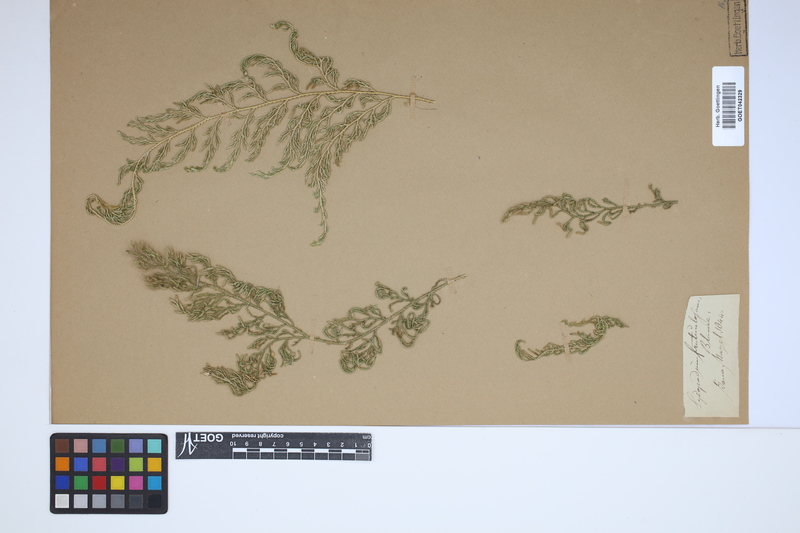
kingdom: Plantae
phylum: Tracheophyta
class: Lycopodiopsida
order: Selaginellales
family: Selaginellaceae
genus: Selaginella
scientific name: Selaginella fruticulosa
